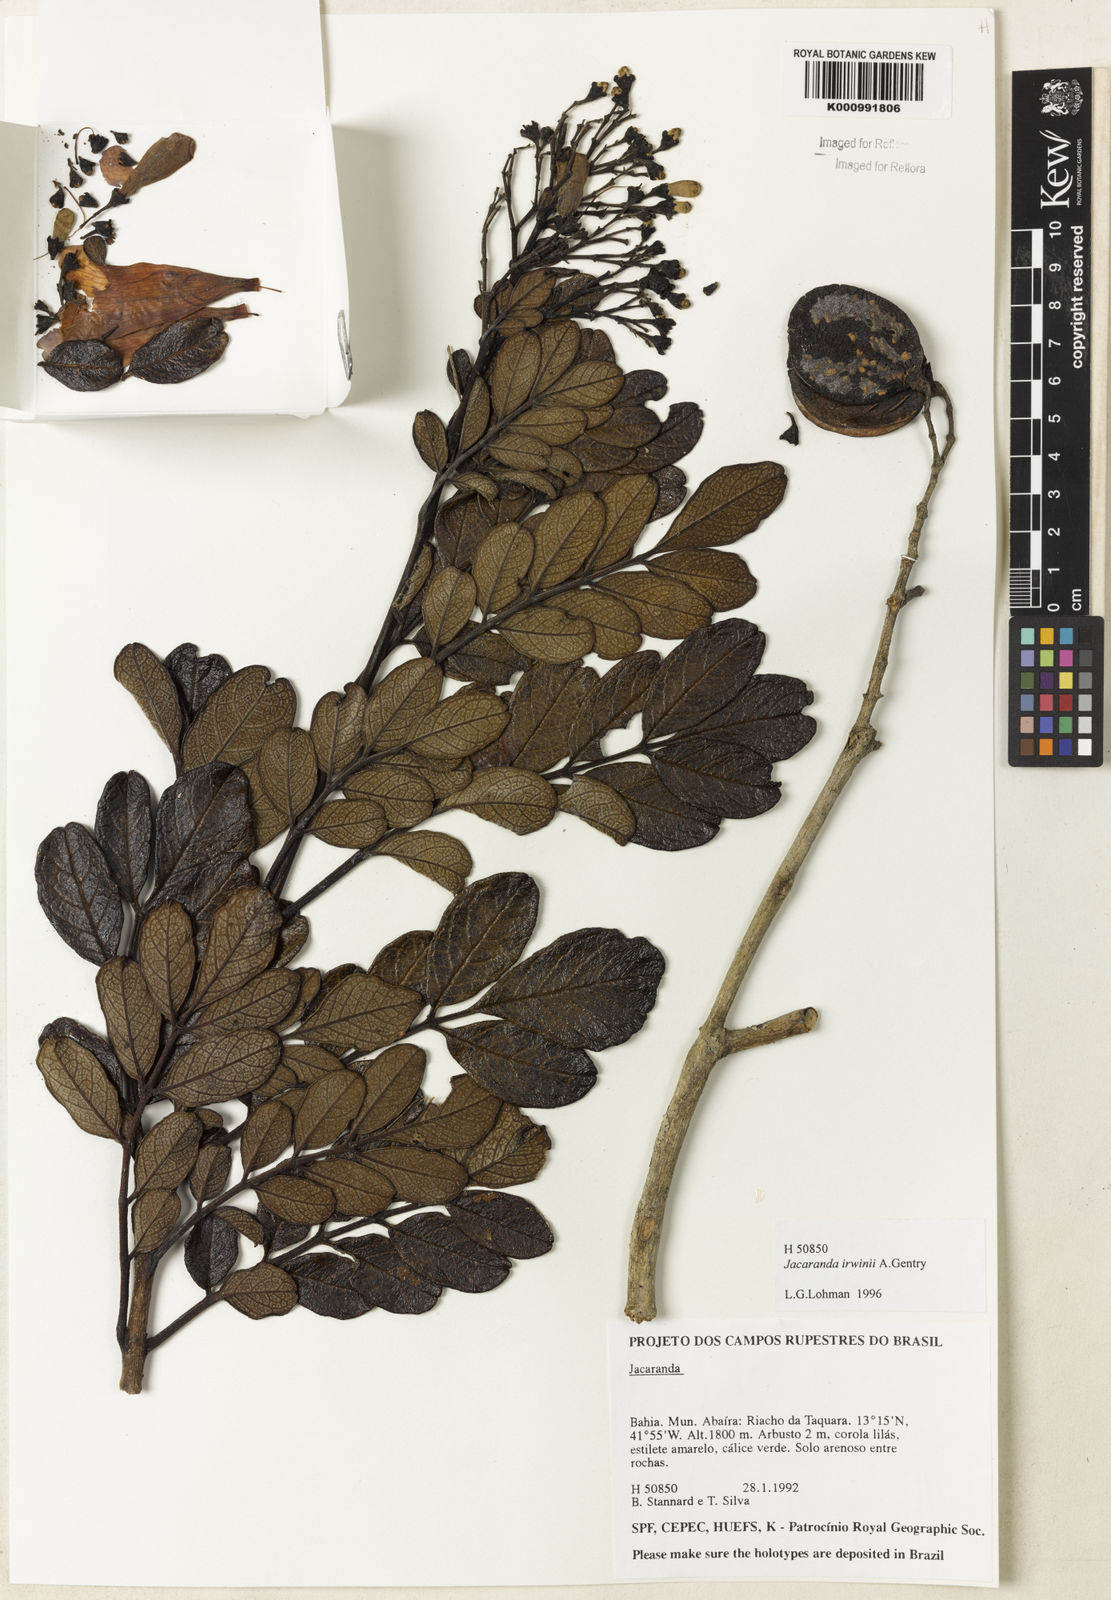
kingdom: Plantae
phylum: Tracheophyta
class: Magnoliopsida
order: Lamiales
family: Bignoniaceae
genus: Jacaranda
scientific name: Jacaranda irwinii
